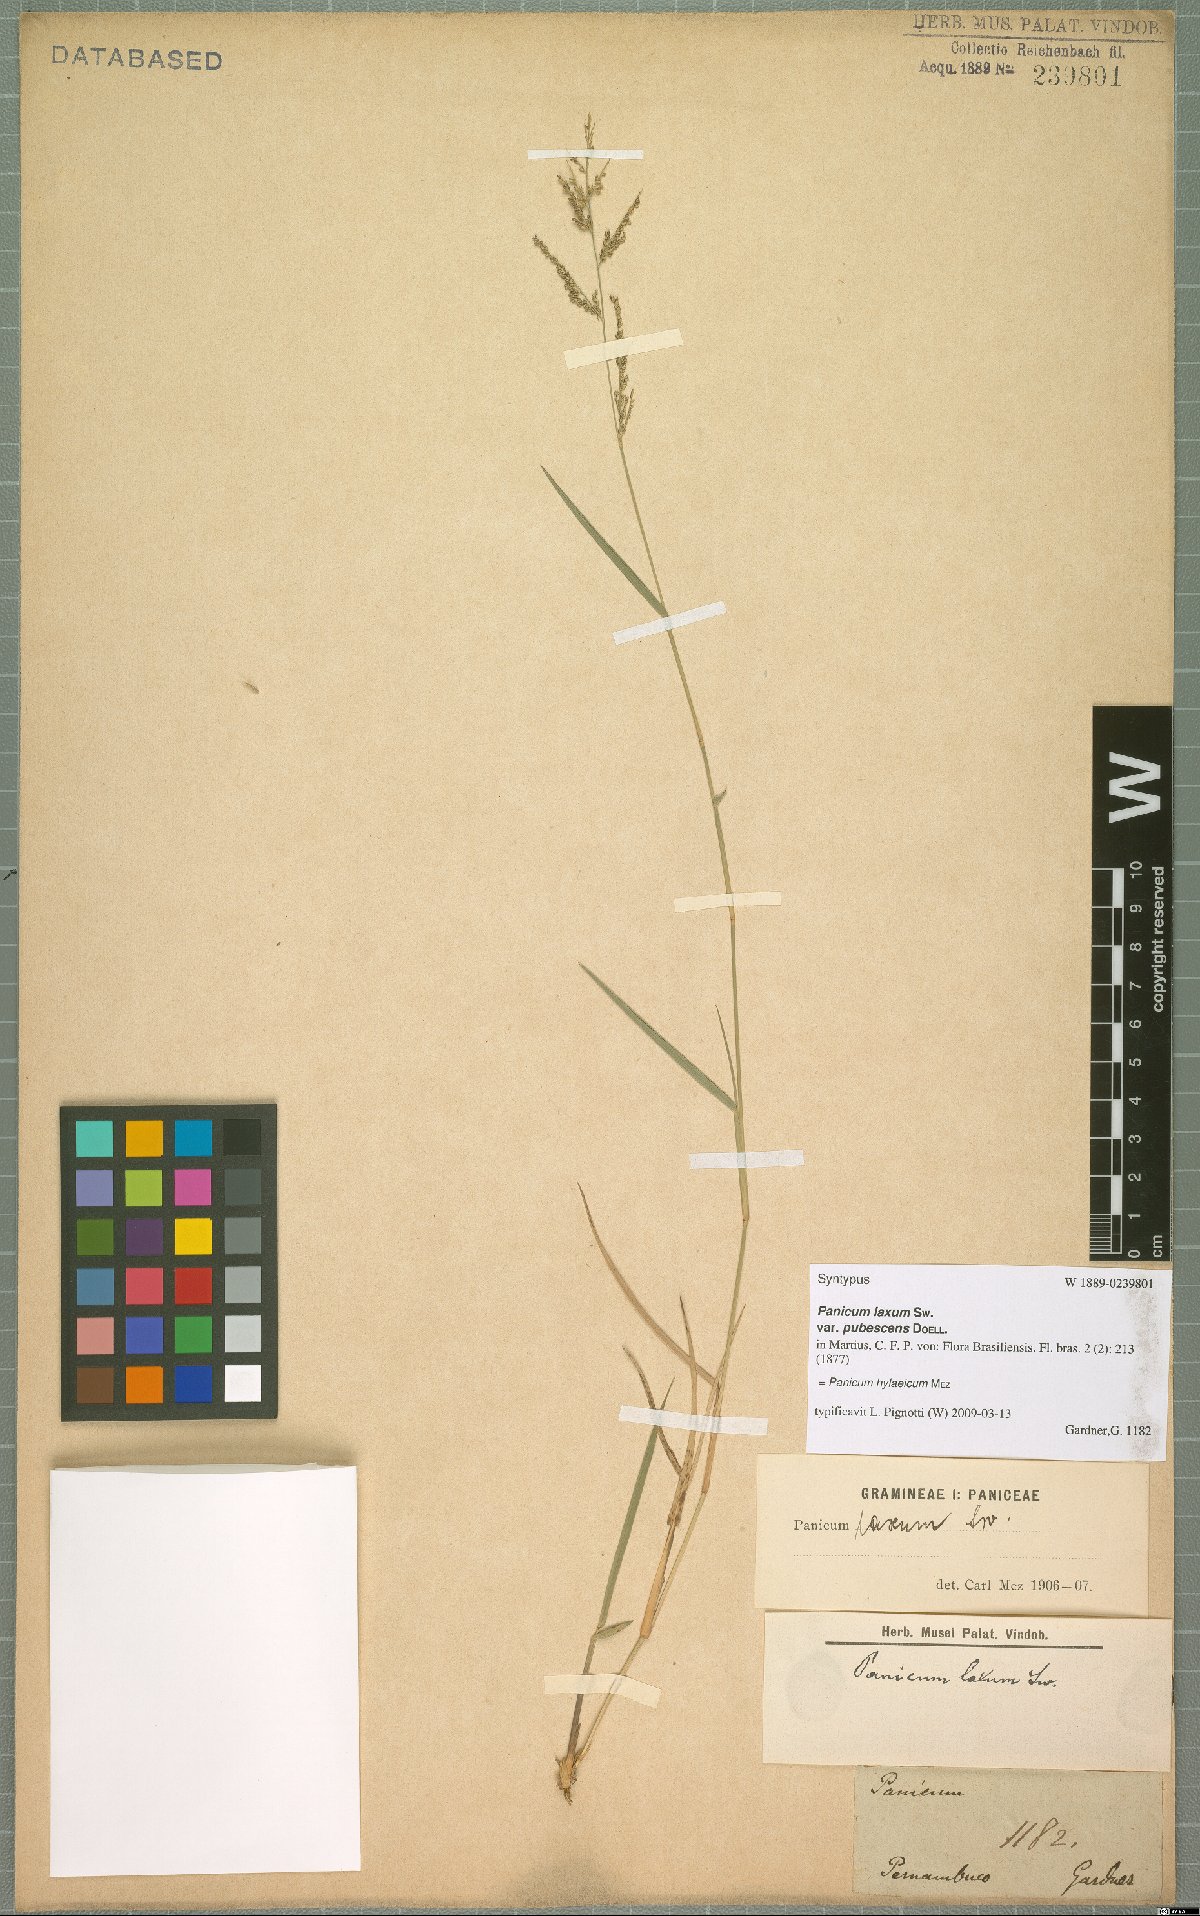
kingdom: Plantae
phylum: Tracheophyta
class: Liliopsida
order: Poales
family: Poaceae
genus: Rugoloa
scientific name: Rugoloa hylaeica
